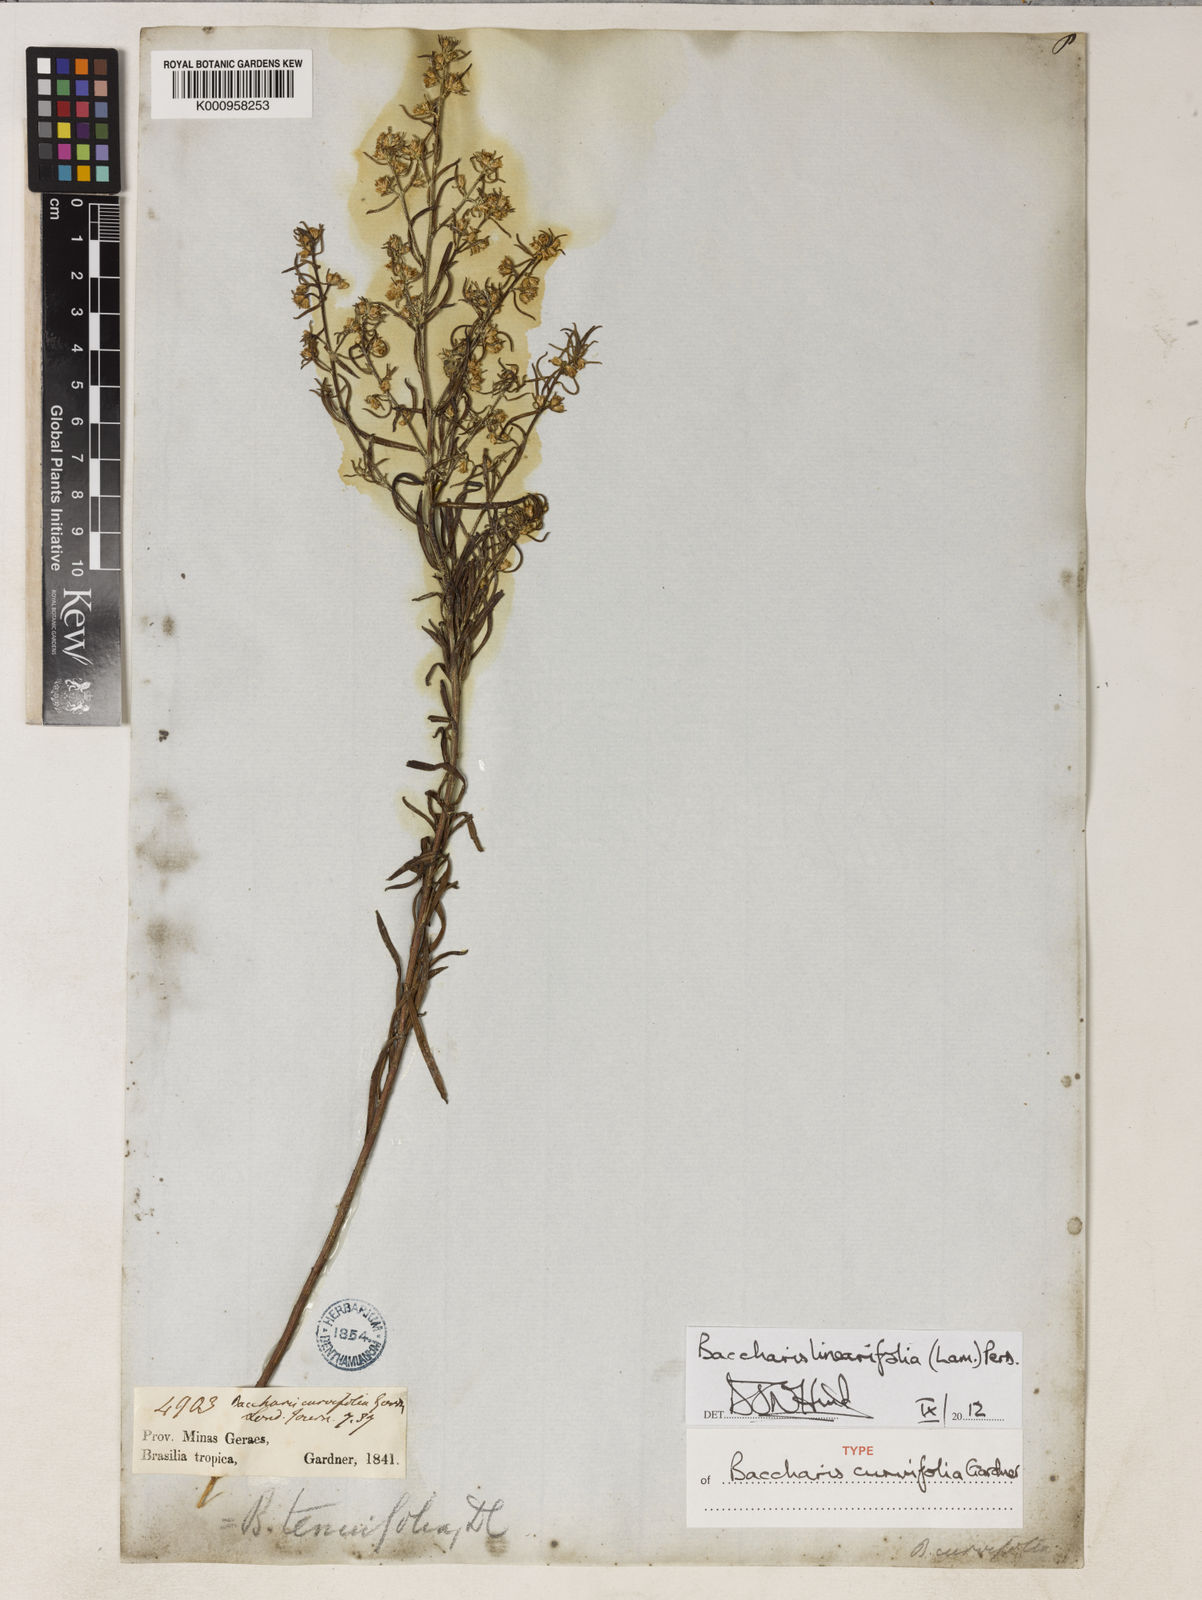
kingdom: Plantae
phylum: Tracheophyta
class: Magnoliopsida
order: Asterales
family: Asteraceae
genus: Baccharis
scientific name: Baccharis linearifolia
